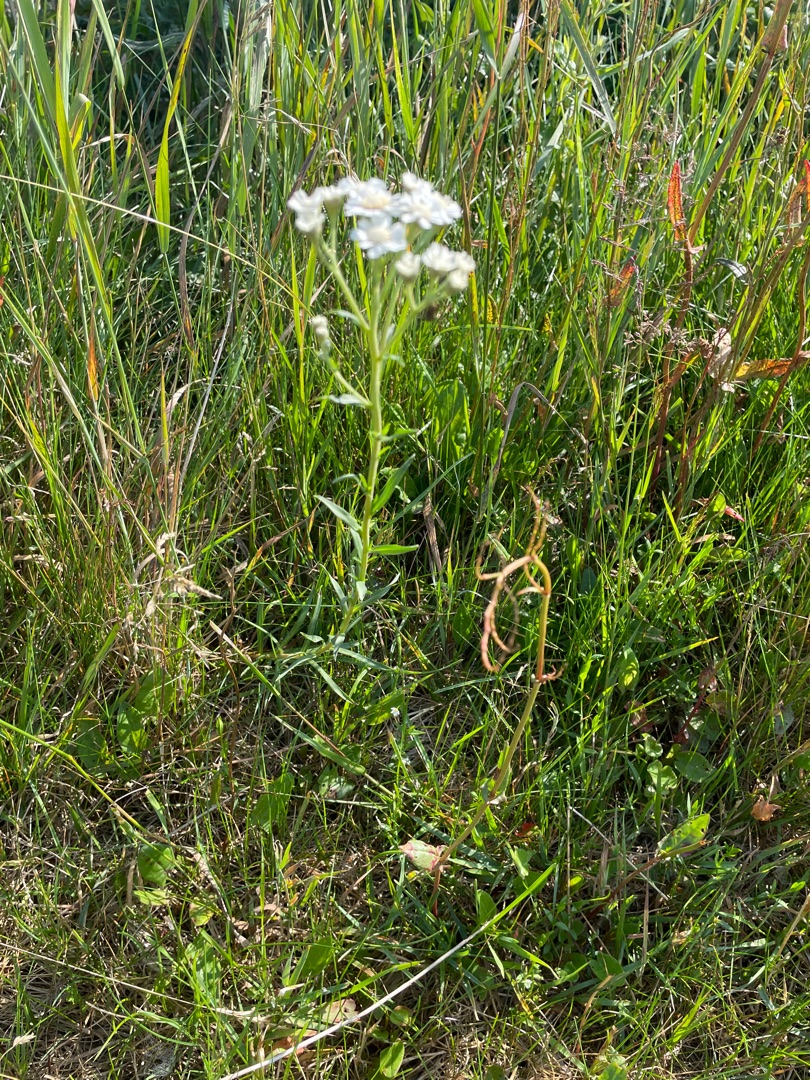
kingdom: Plantae
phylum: Tracheophyta
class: Magnoliopsida
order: Asterales
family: Asteraceae
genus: Achillea
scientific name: Achillea ptarmica
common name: Nyse-røllike
